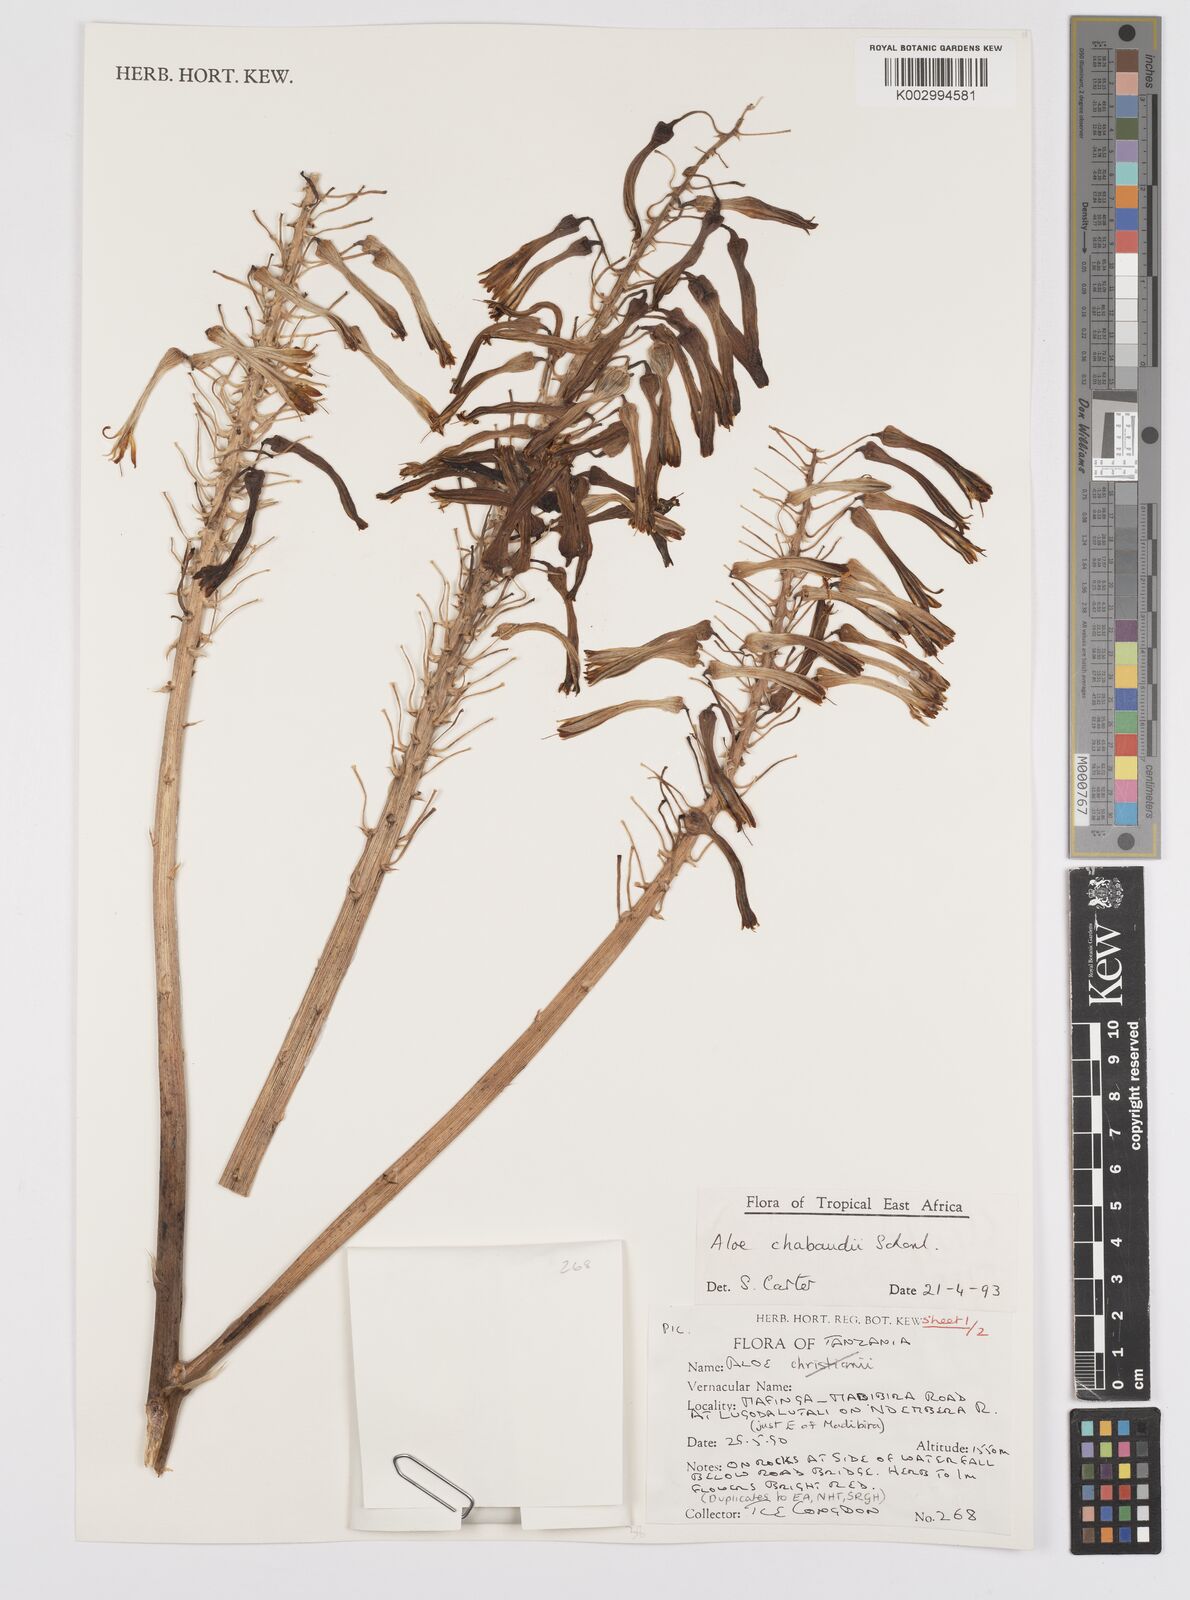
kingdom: Plantae
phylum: Tracheophyta
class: Liliopsida
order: Asparagales
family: Asphodelaceae
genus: Aloe
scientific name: Aloe chabaudii
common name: Chabaud's aloe
